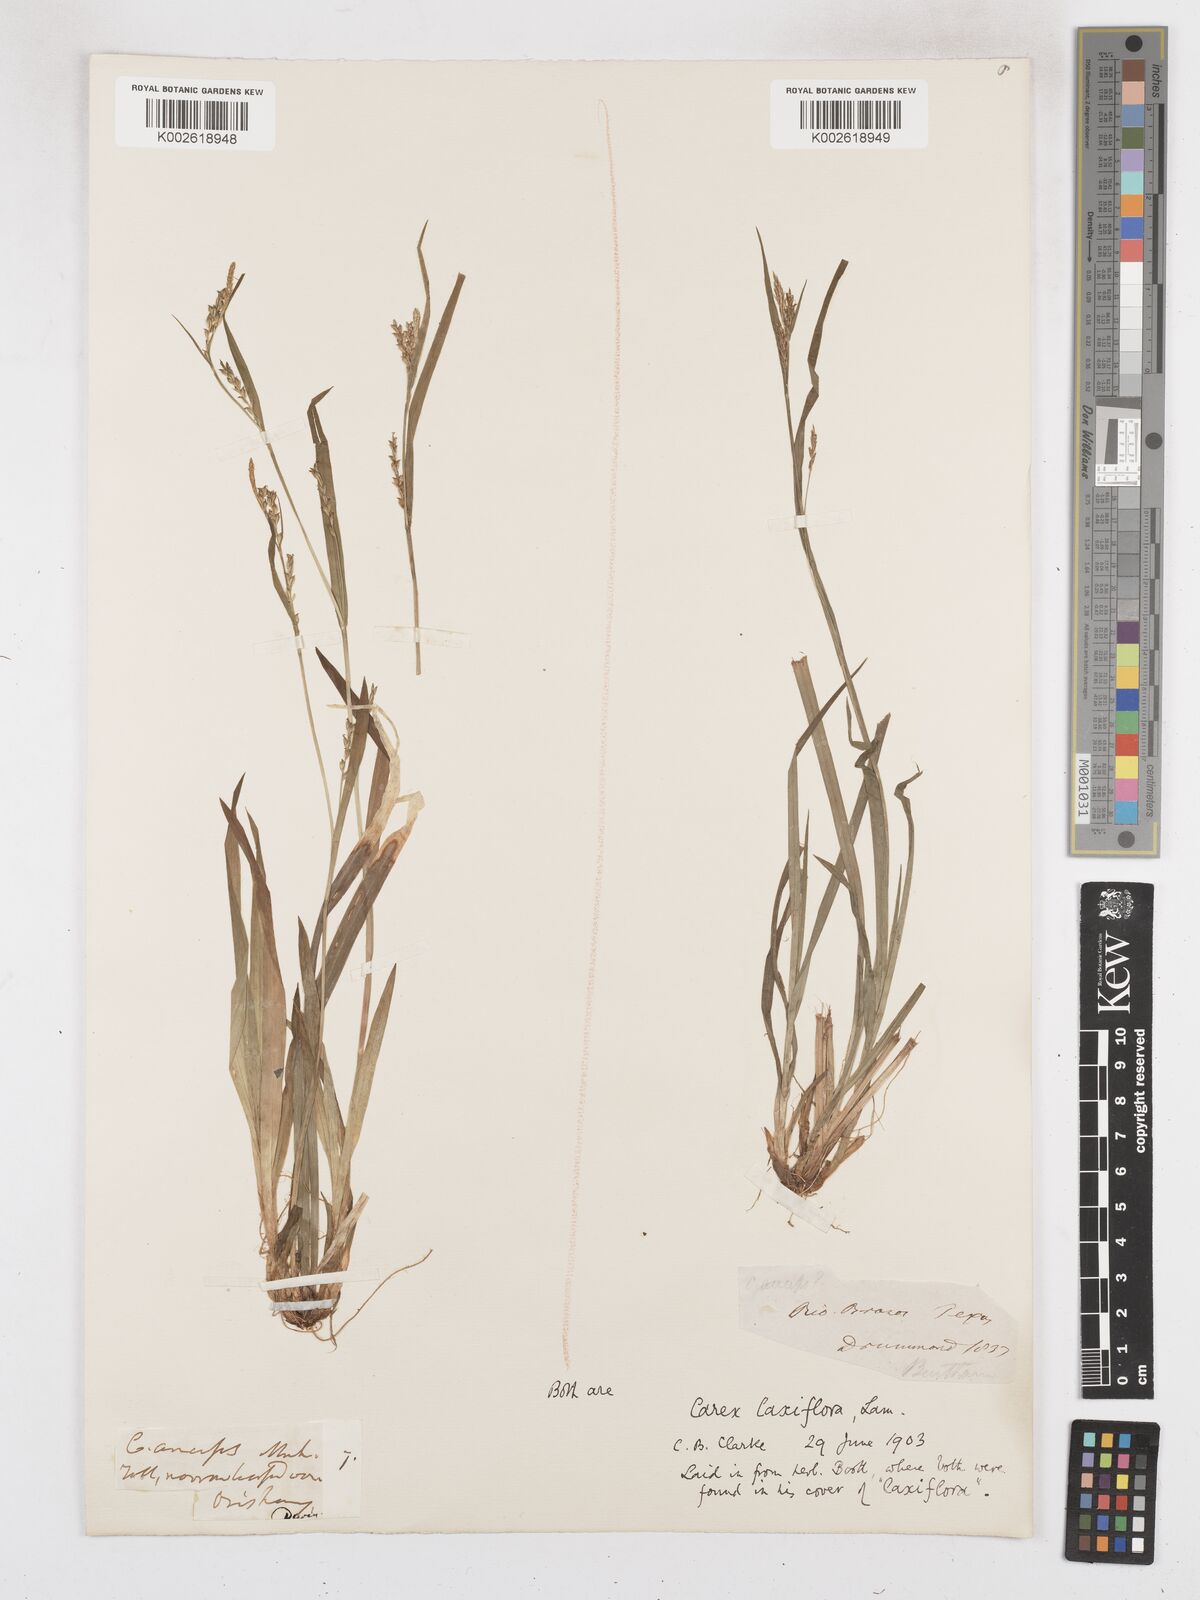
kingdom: Plantae
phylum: Tracheophyta
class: Liliopsida
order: Poales
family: Cyperaceae
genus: Carex
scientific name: Carex laxiflora
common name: Beech wood sedge
